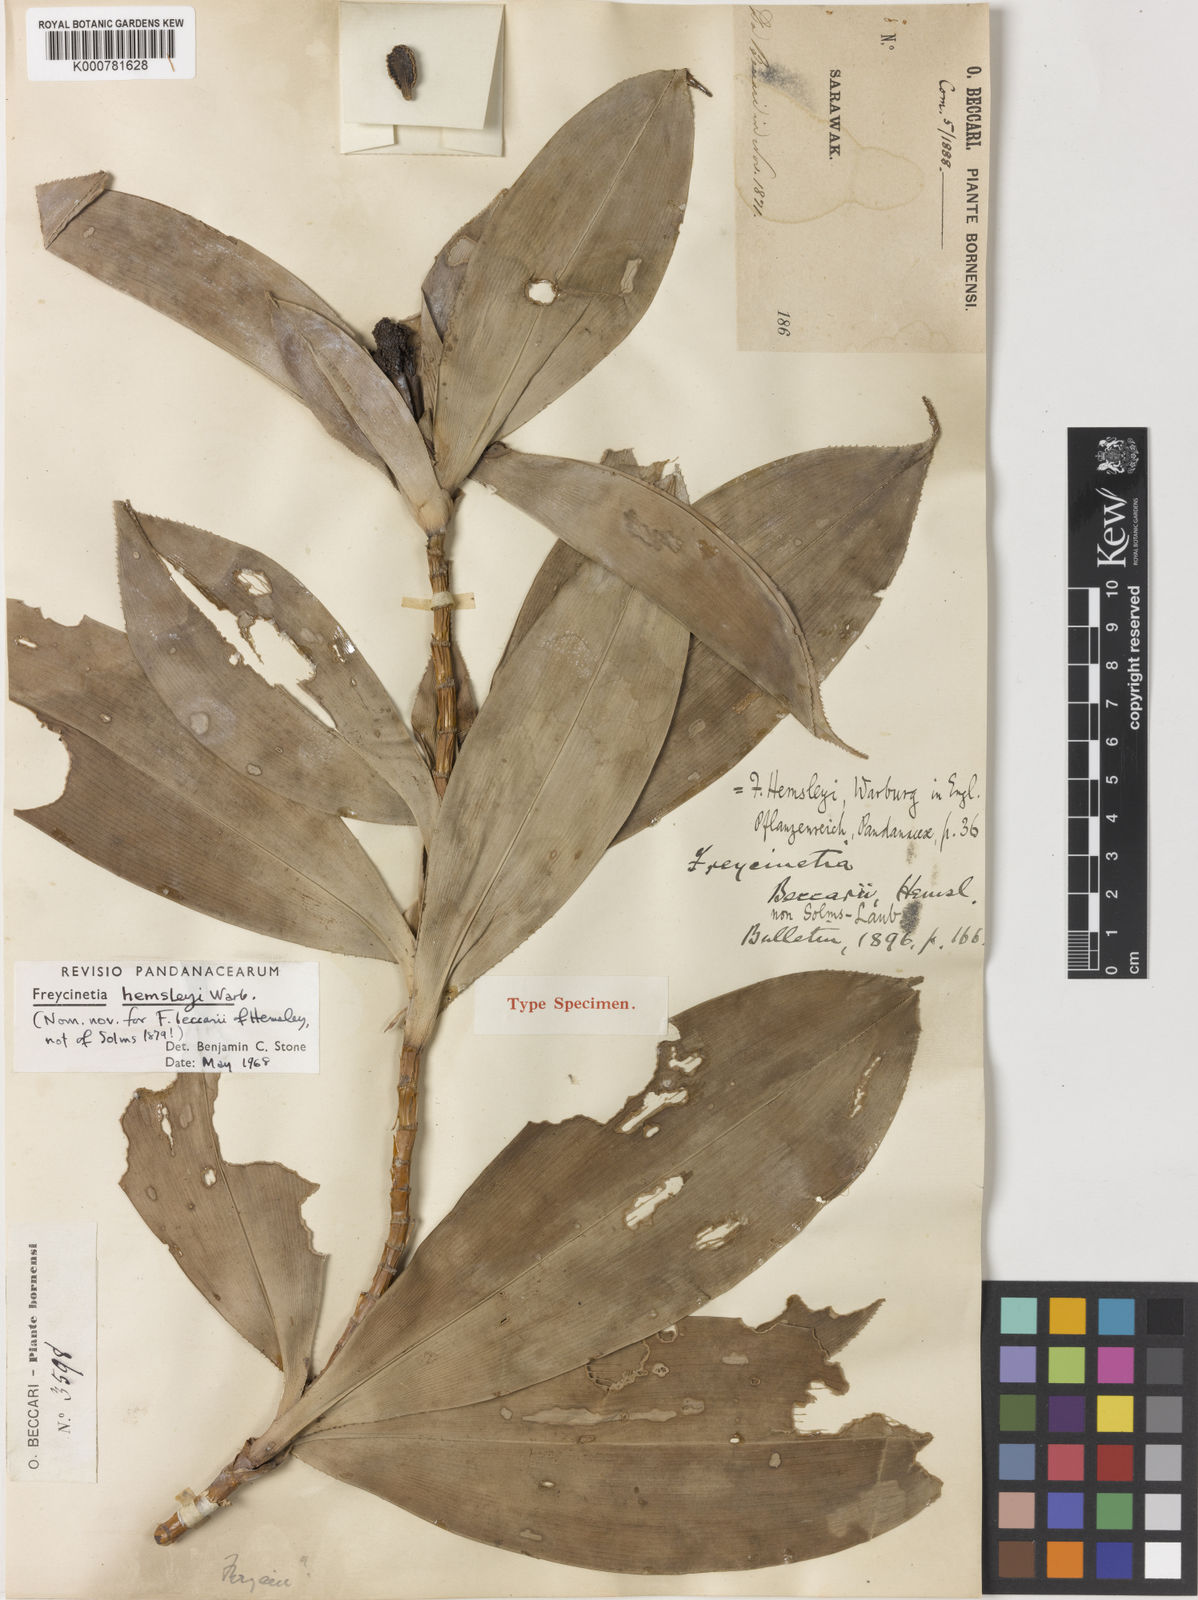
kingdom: Plantae
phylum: Tracheophyta
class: Liliopsida
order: Pandanales
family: Pandanaceae
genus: Freycinetia
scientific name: Freycinetia hemsleyi
